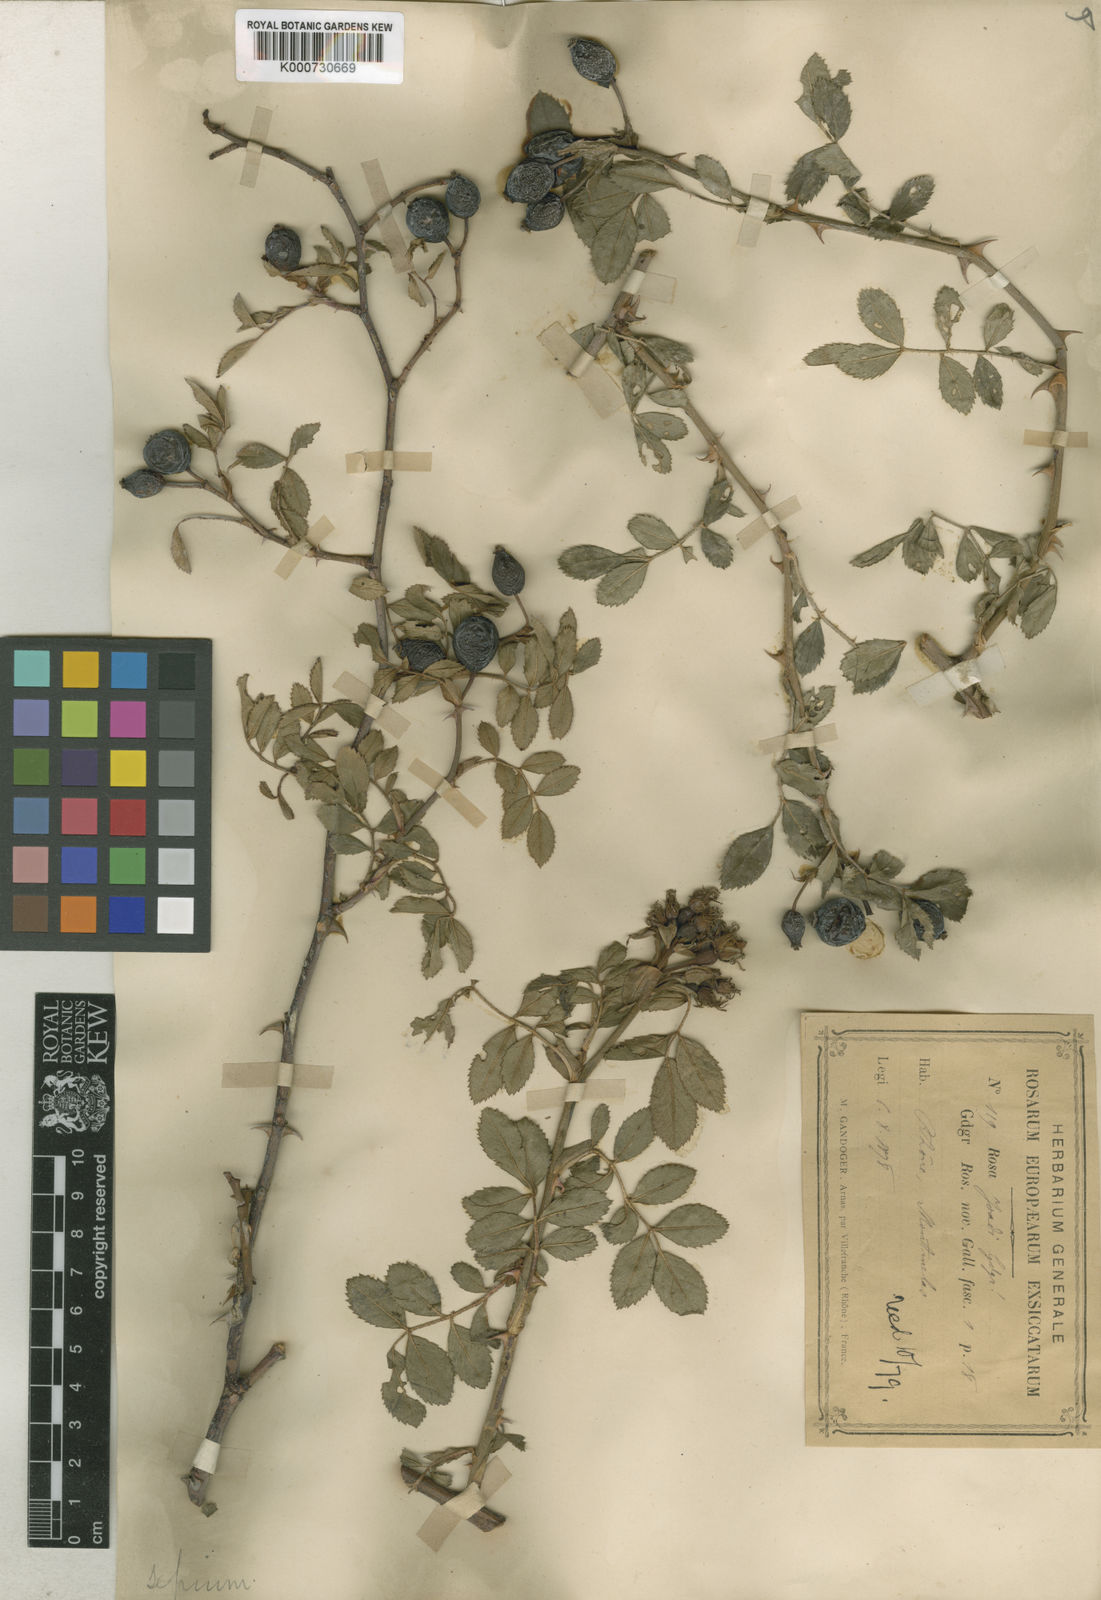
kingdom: Plantae
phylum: Tracheophyta
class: Magnoliopsida
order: Rosales
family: Rosaceae
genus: Rosa
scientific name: Rosa agrestis
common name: Fieldbriar
